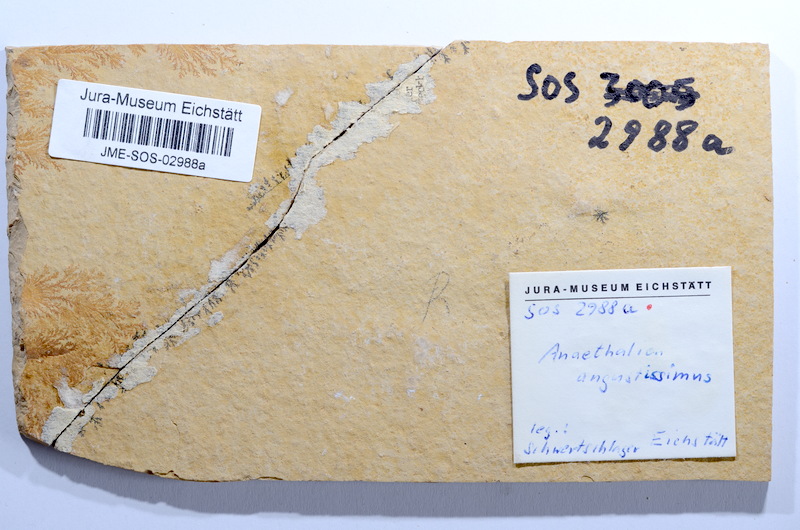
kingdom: Animalia
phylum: Chordata
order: Elopiformes
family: Anaethalionidae
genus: Anaethalion
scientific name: Anaethalion angustissimus
